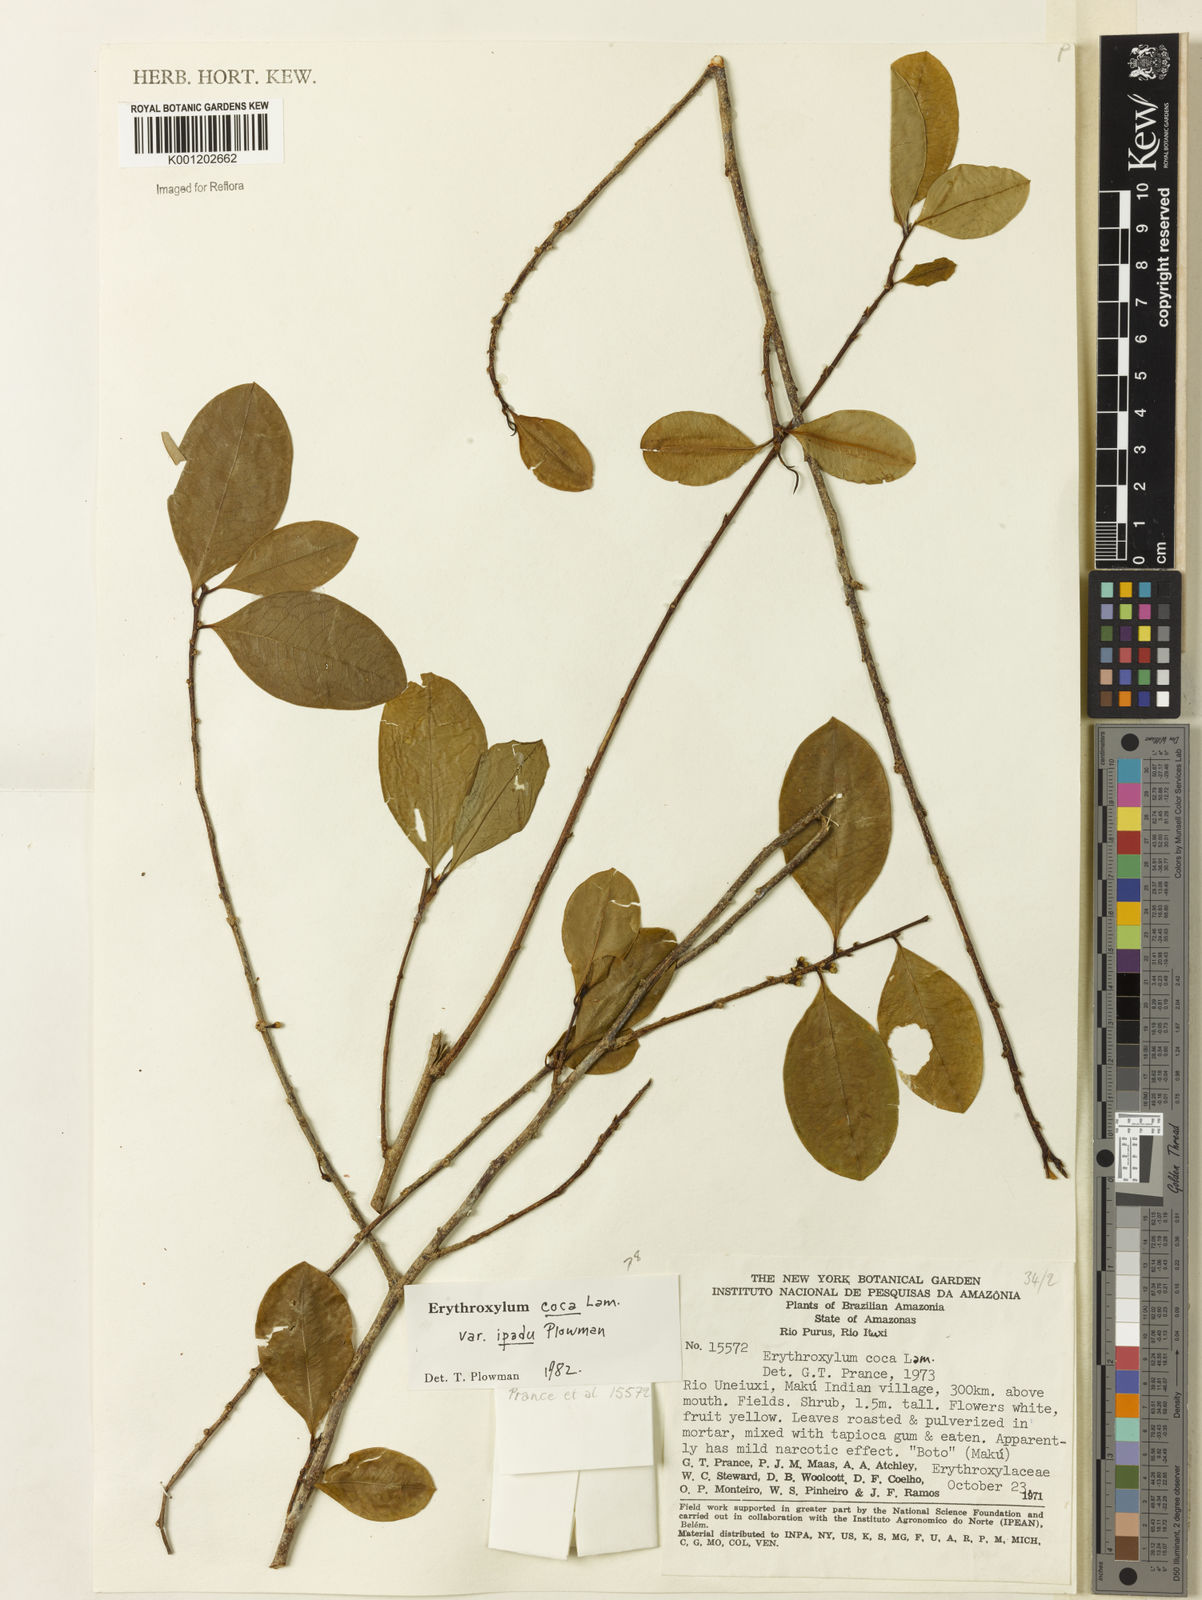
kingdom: Plantae
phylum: Tracheophyta
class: Magnoliopsida
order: Malpighiales
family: Erythroxylaceae
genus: Erythroxylum
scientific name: Erythroxylum coca
